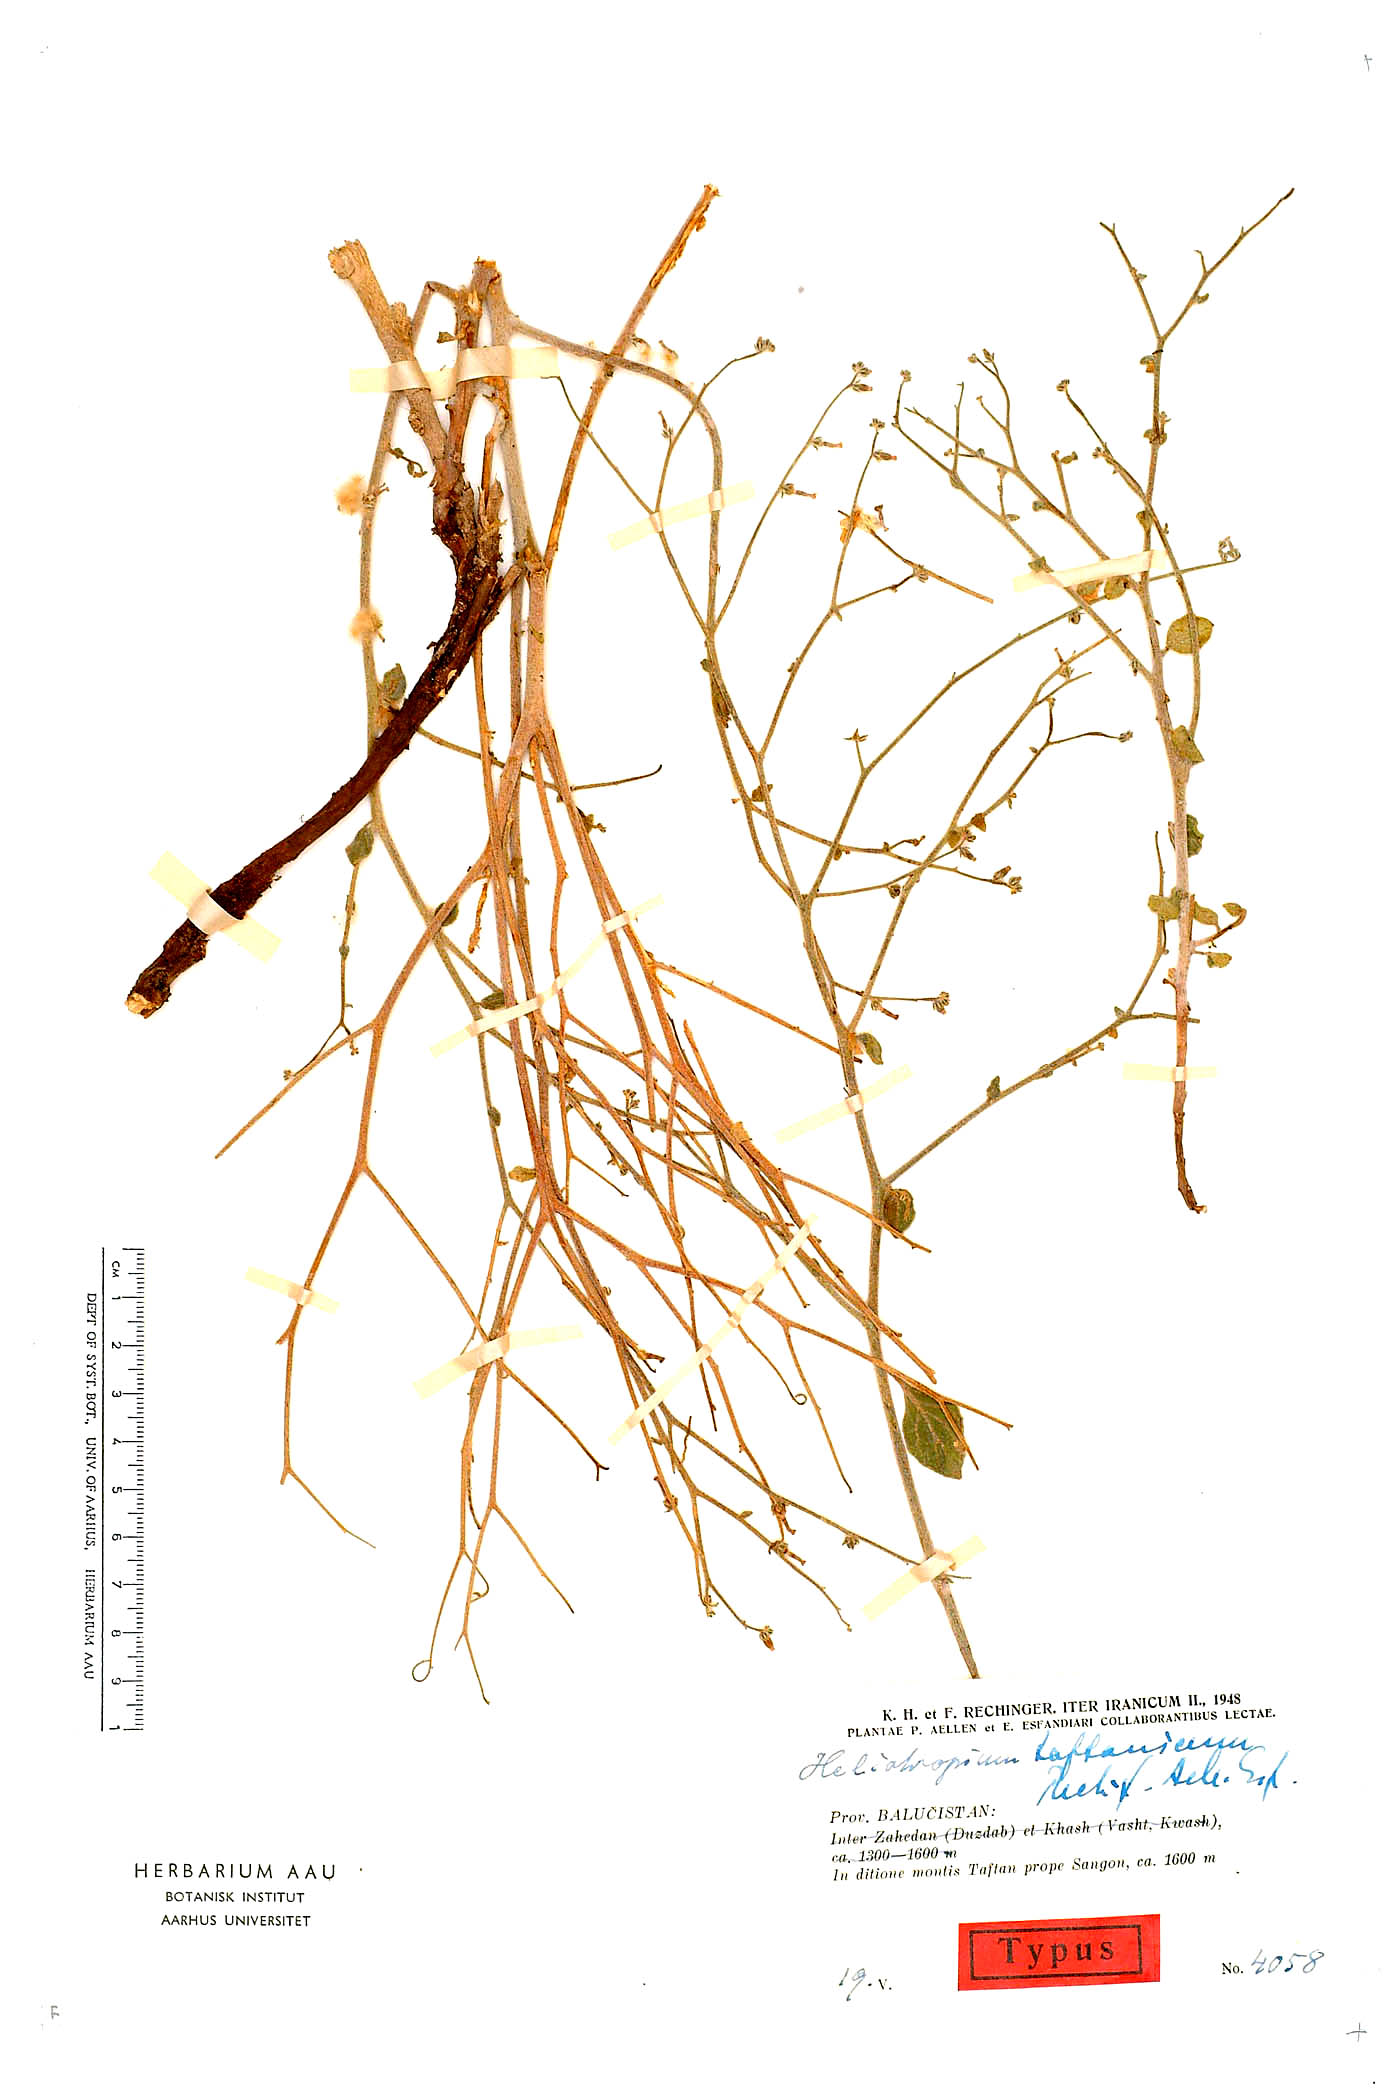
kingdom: Plantae
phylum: Tracheophyta
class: Magnoliopsida
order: Boraginales
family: Heliotropiaceae
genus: Heliotropium
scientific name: Heliotropium dasycarpum
